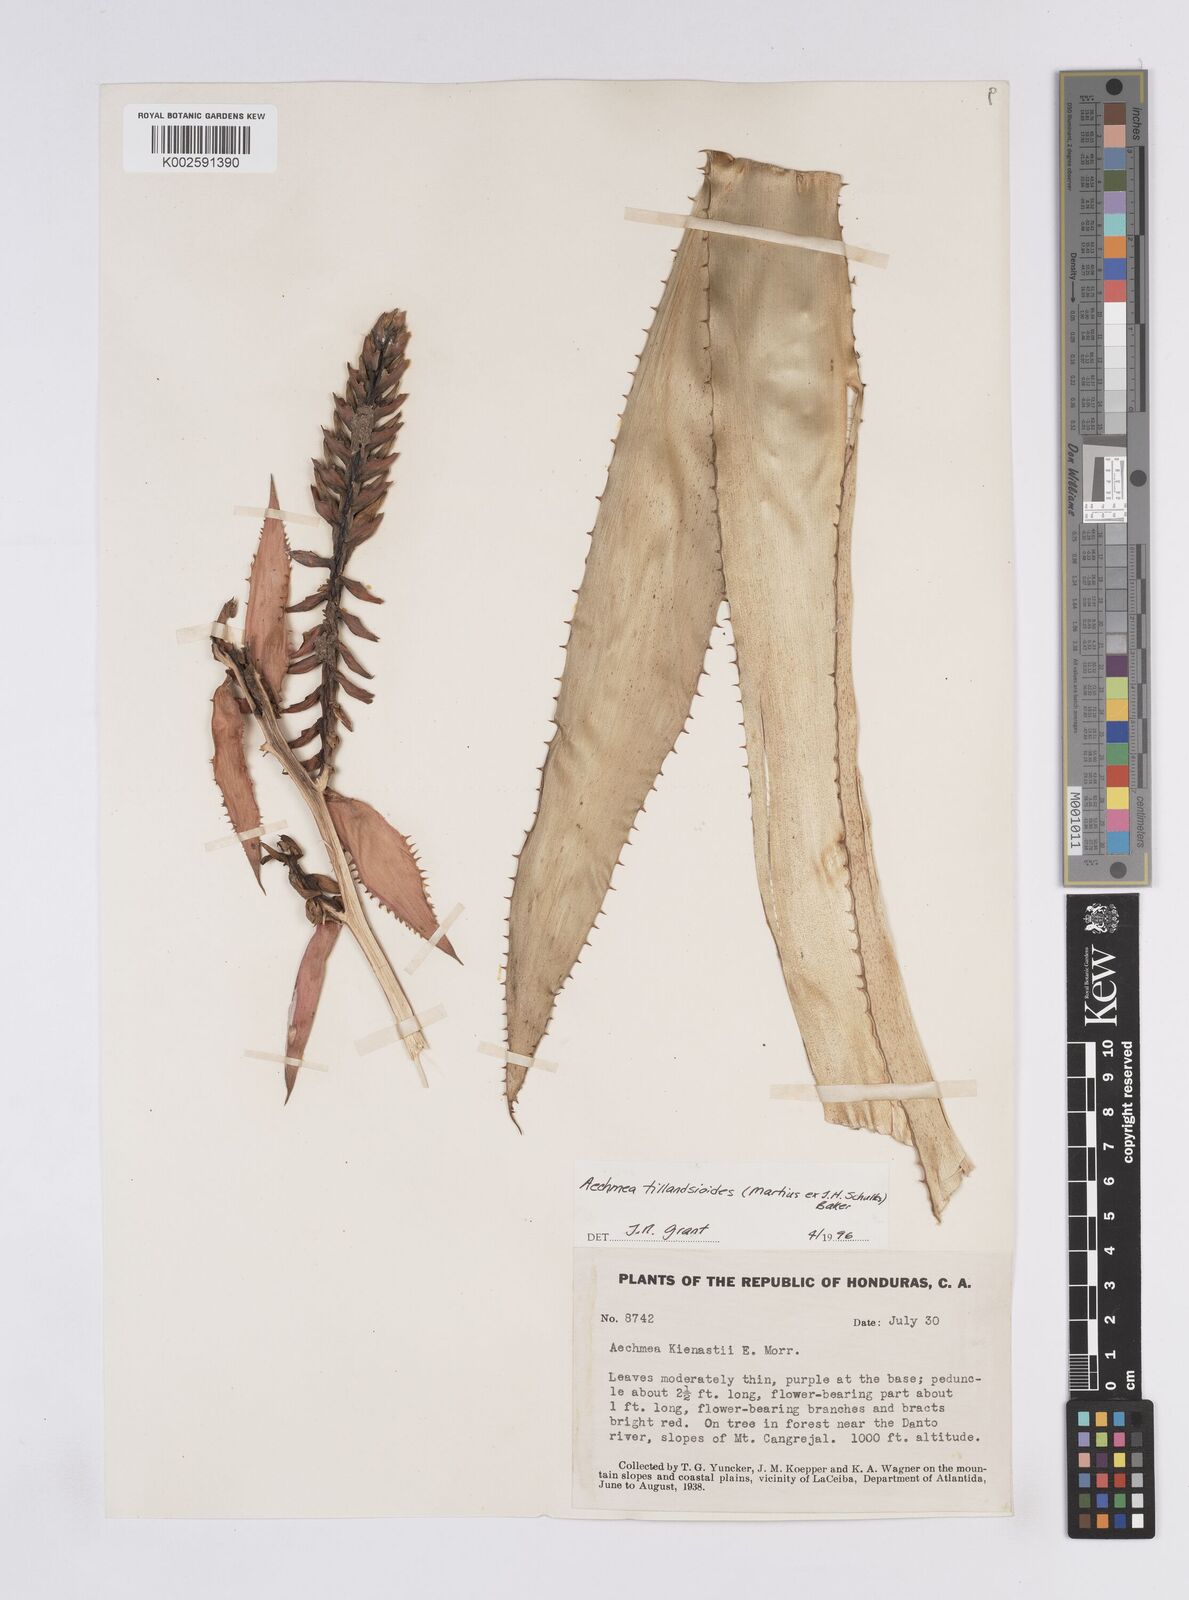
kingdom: Plantae
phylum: Tracheophyta
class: Liliopsida
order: Poales
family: Bromeliaceae
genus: Aechmea
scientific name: Aechmea tillandsioides
